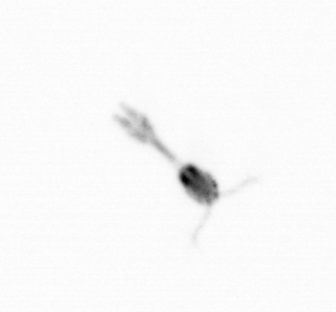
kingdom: Animalia
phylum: Arthropoda
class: Copepoda
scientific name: Copepoda
